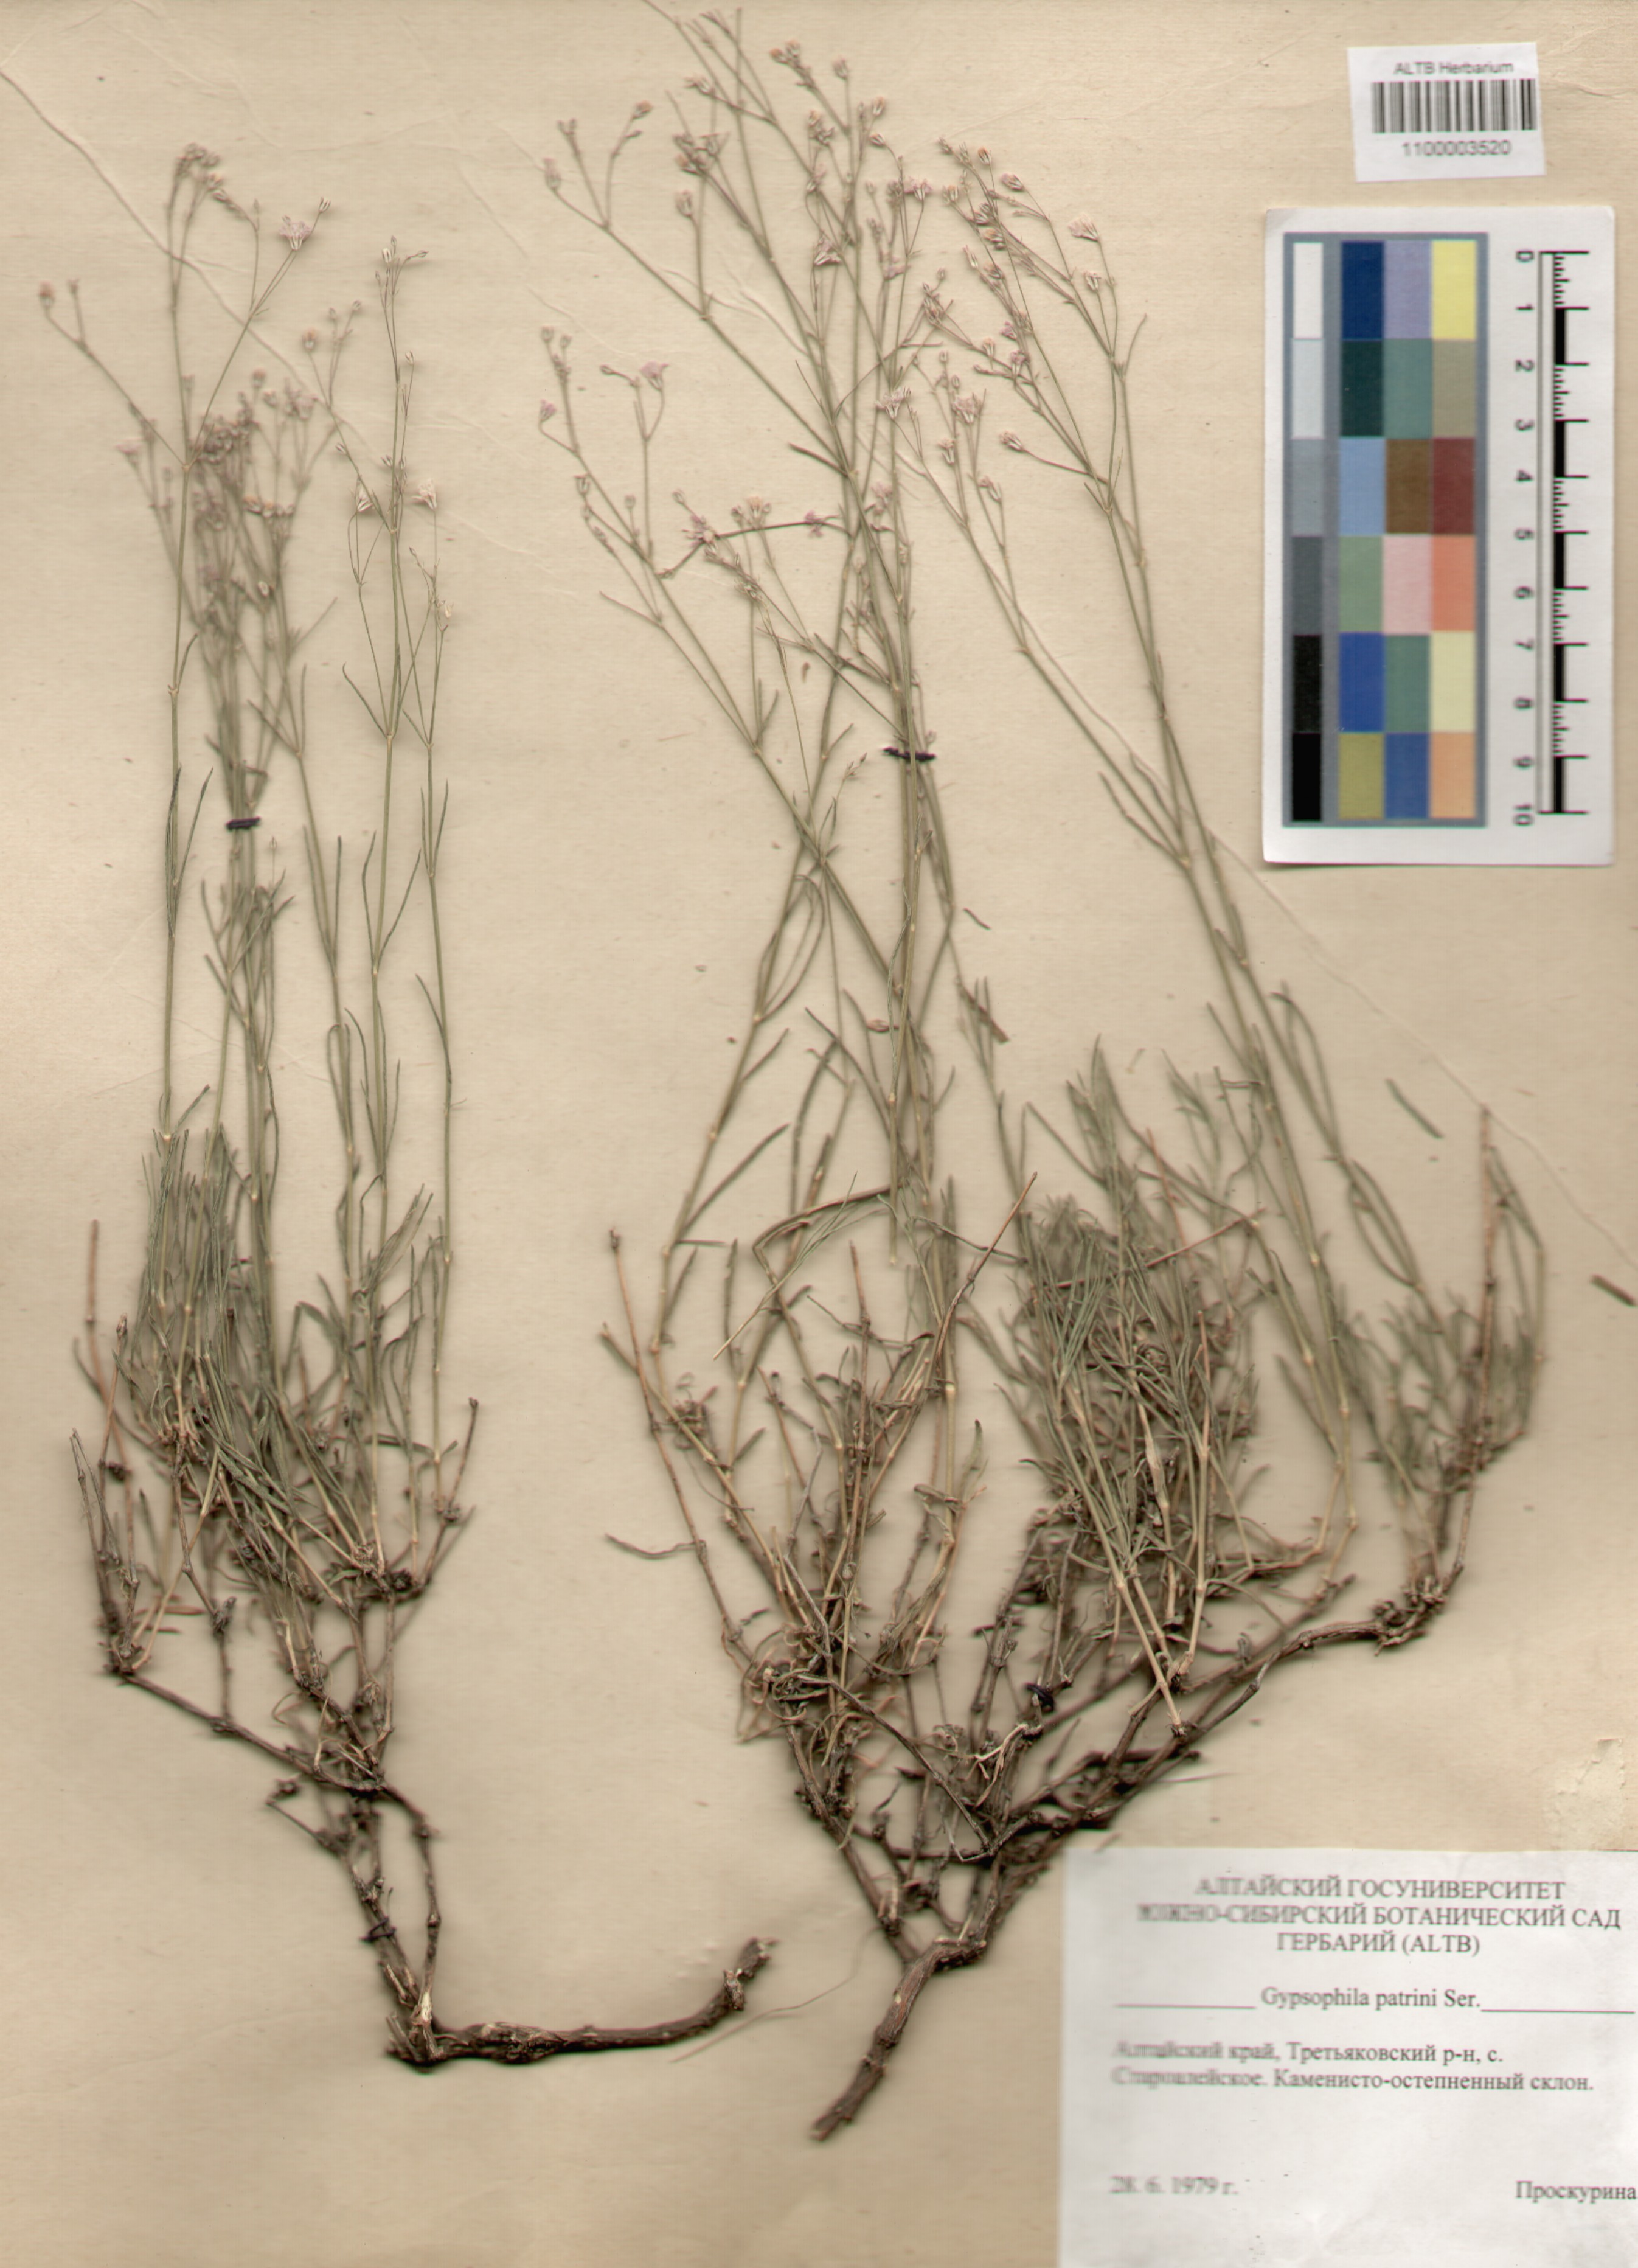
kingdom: Plantae
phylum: Tracheophyta
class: Magnoliopsida
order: Caryophyllales
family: Caryophyllaceae
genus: Gypsophila
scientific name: Gypsophila patrinii
